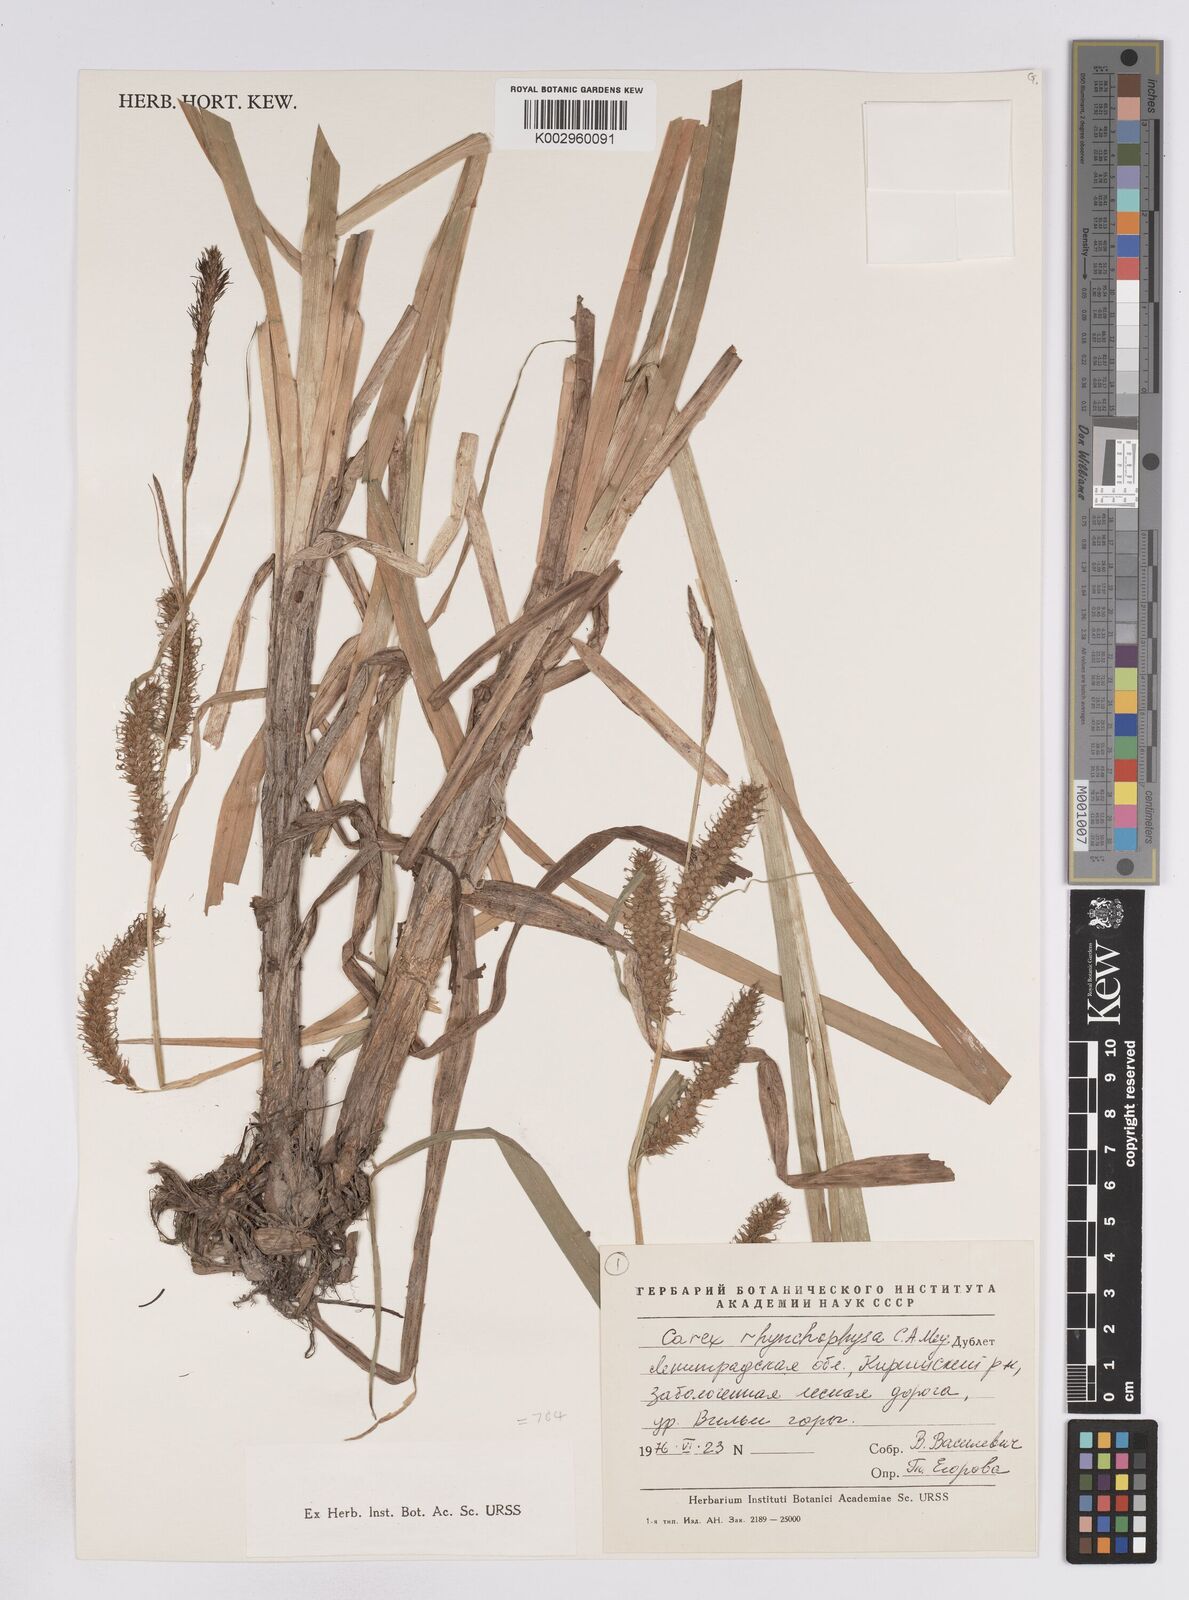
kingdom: Plantae
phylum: Tracheophyta
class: Liliopsida
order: Poales
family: Cyperaceae
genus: Carex
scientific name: Carex utriculata
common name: Beaked sedge
